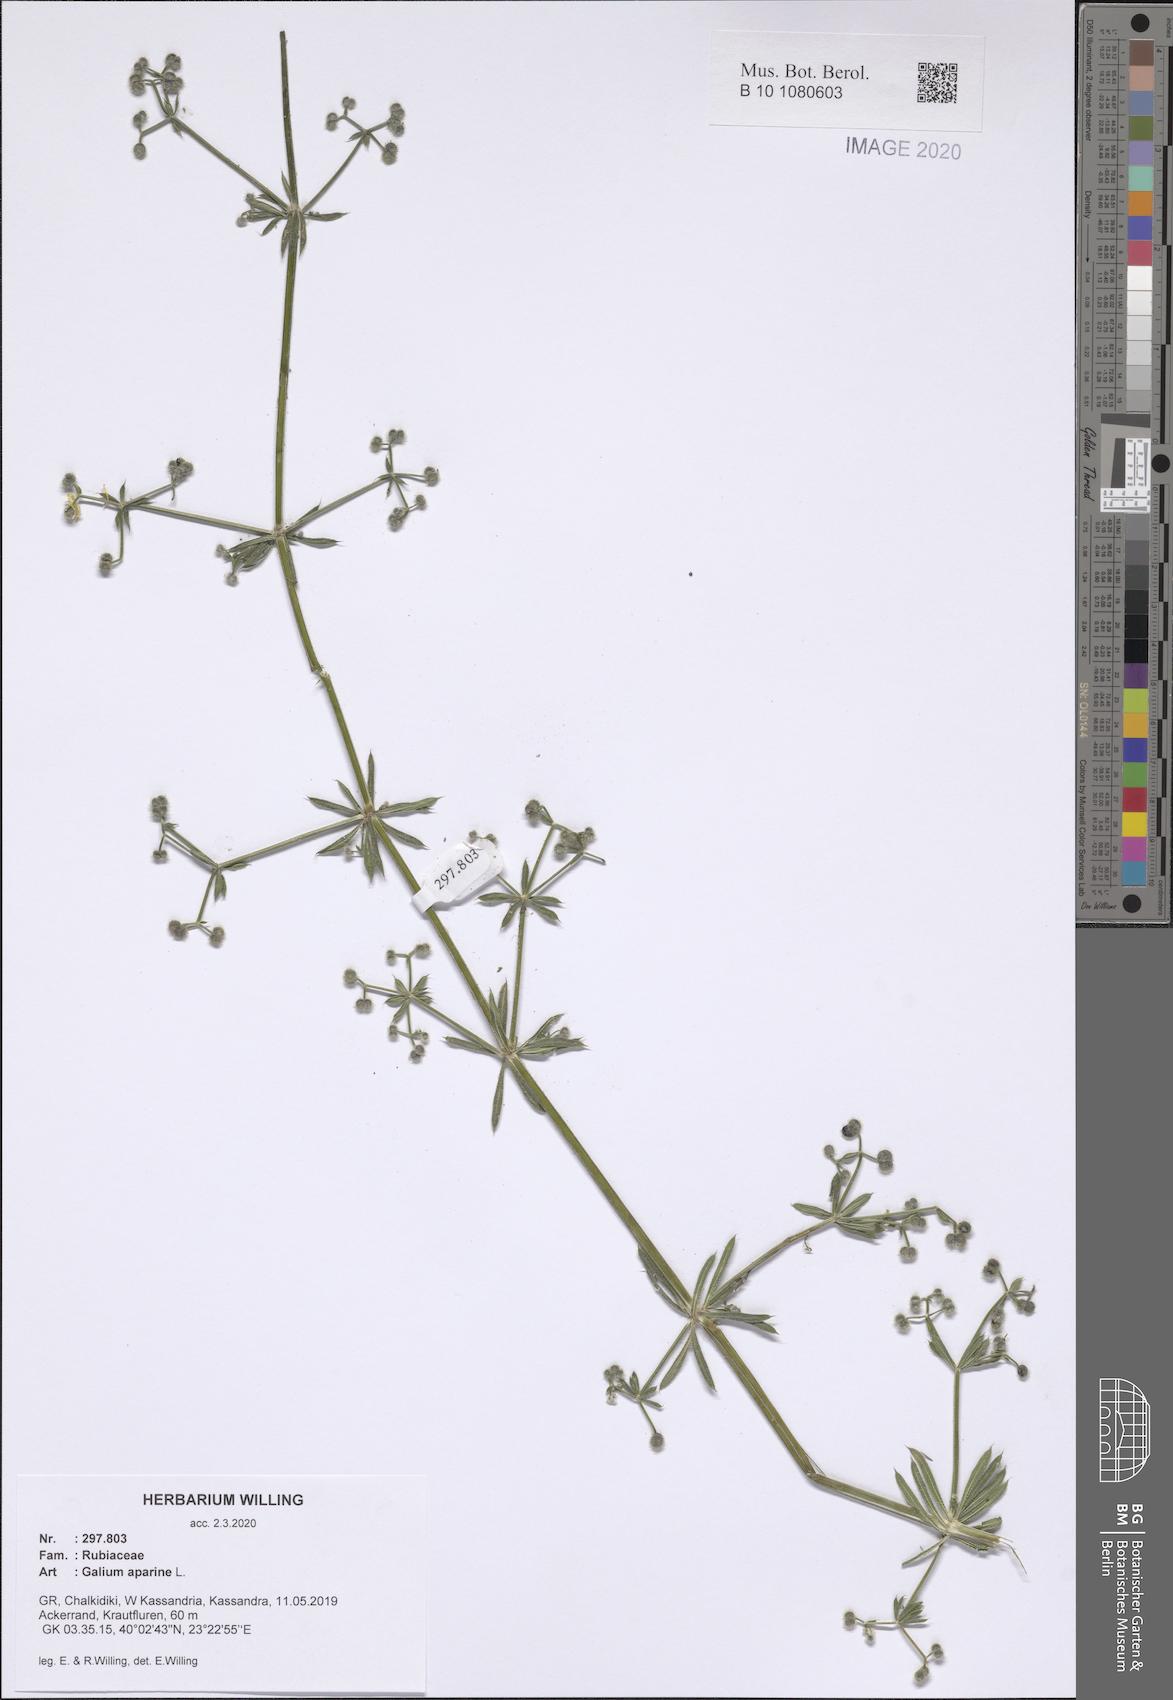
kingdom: Plantae
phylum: Tracheophyta
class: Magnoliopsida
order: Gentianales
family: Rubiaceae
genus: Galium
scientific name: Galium aparine
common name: Cleavers
